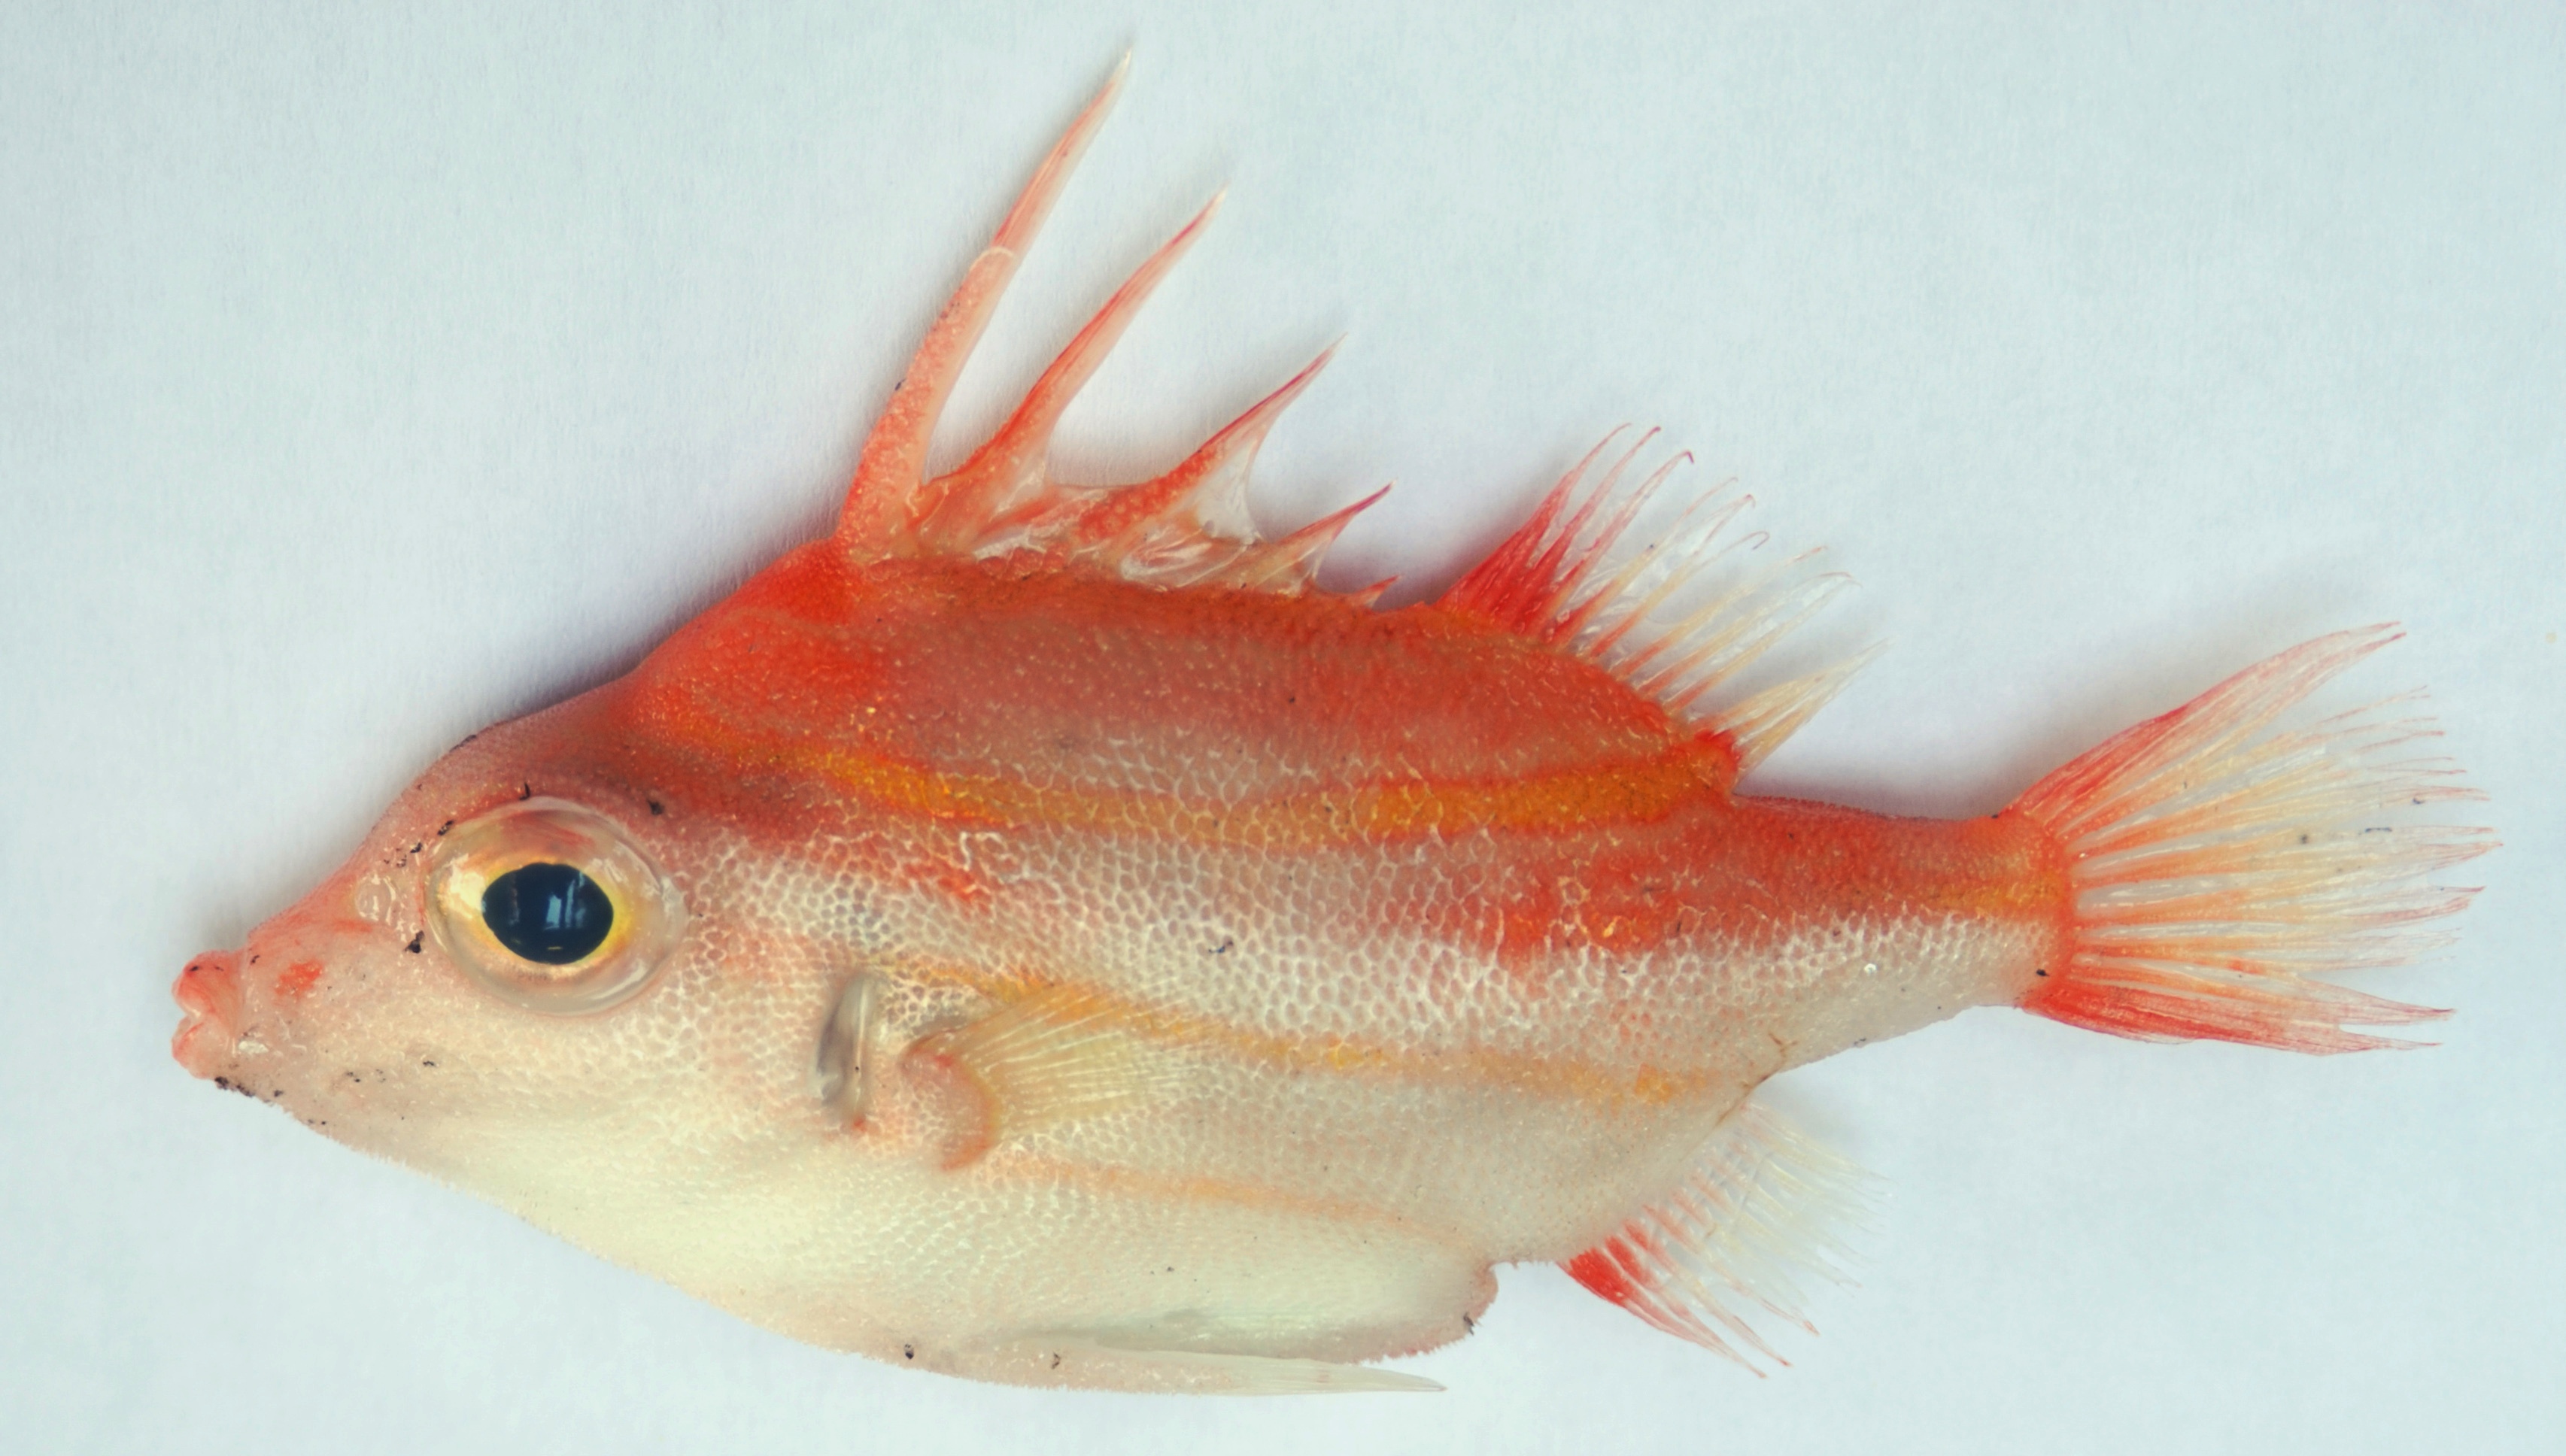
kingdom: Animalia
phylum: Chordata
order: Tetraodontiformes
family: Triacanthodidae
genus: Triacanthodes
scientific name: Triacanthodes ethiops
